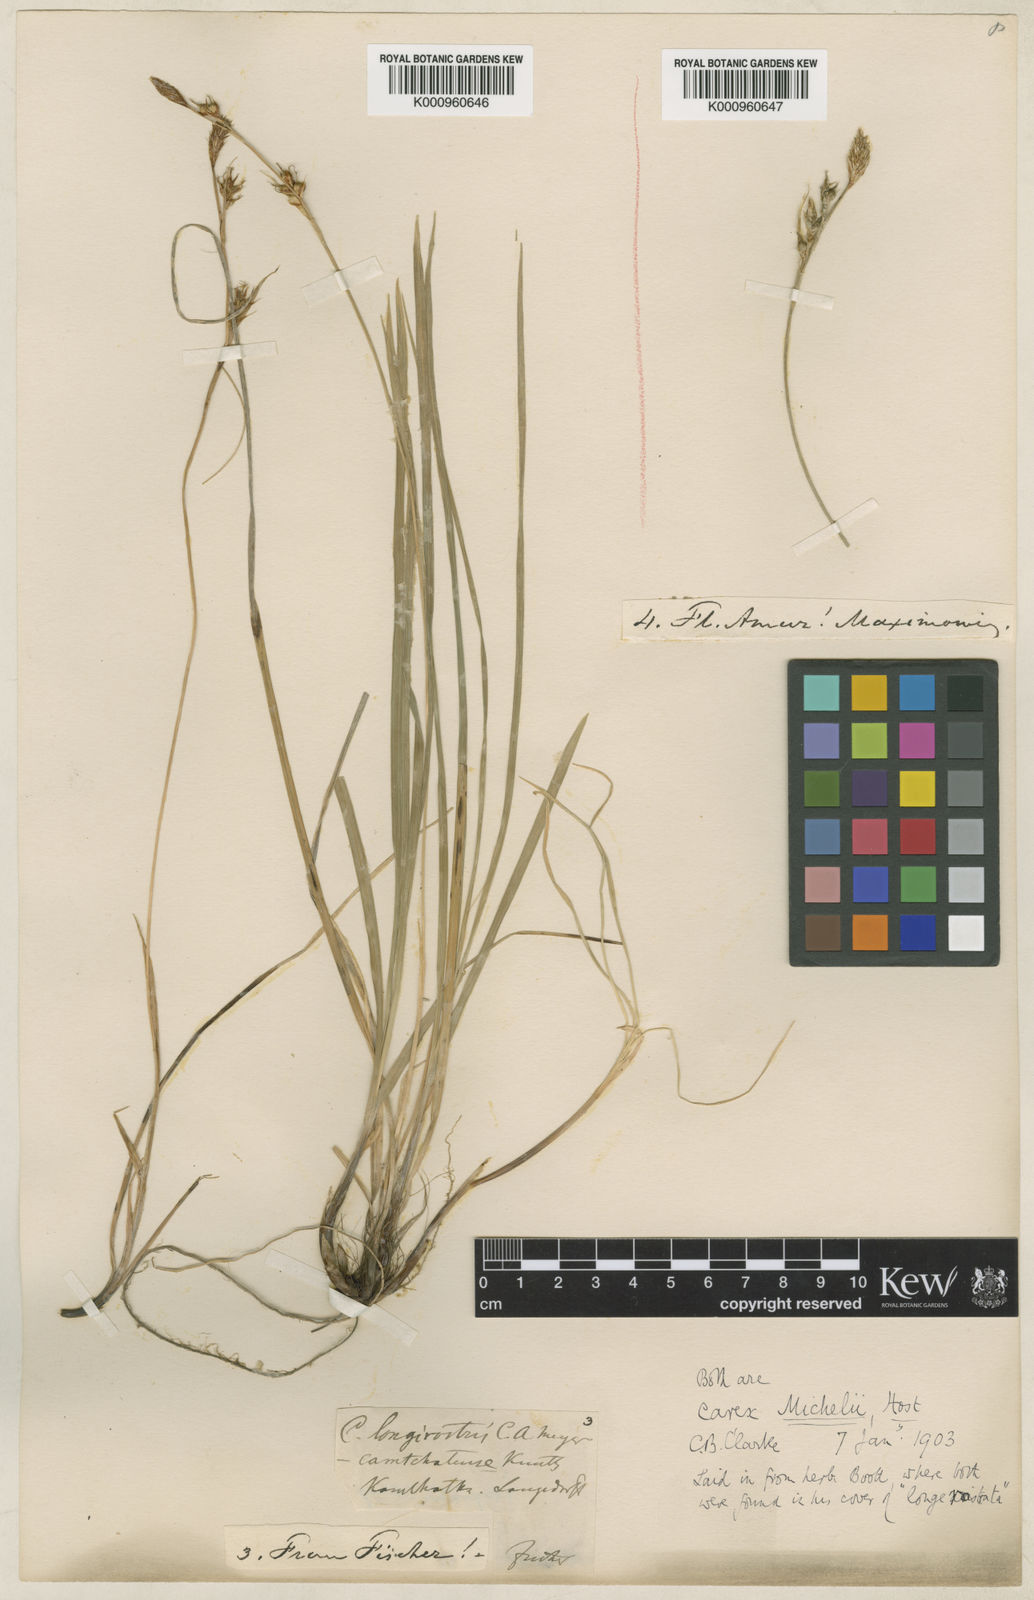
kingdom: Plantae
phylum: Tracheophyta
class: Liliopsida
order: Poales
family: Cyperaceae
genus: Carex
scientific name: Carex longerostrata
